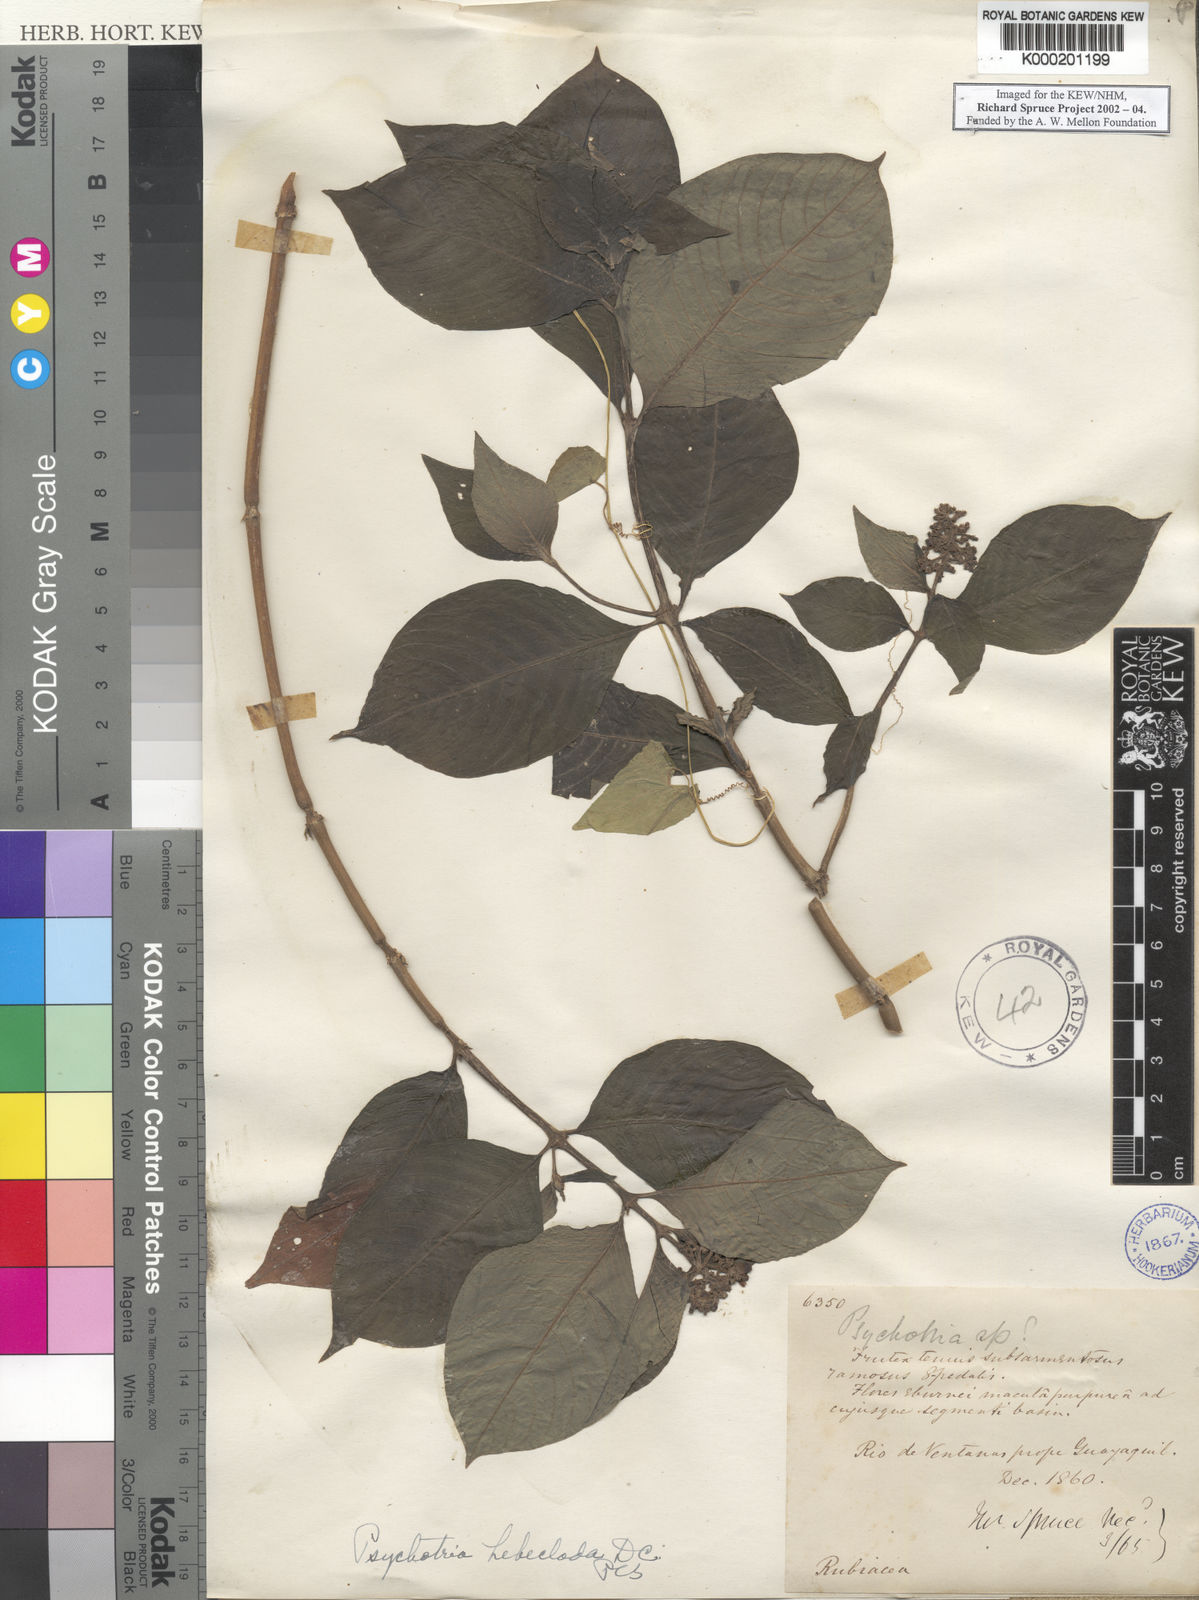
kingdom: Plantae
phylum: Tracheophyta
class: Magnoliopsida
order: Gentianales
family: Rubiaceae
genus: Palicourea
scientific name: Palicourea hebeclada
